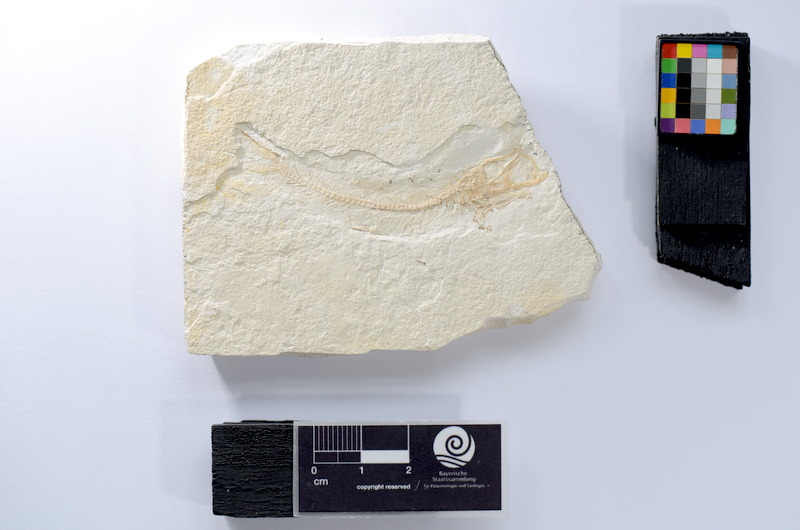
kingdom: Animalia
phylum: Chordata
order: Salmoniformes
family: Orthogonikleithridae
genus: Leptolepides
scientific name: Leptolepides
